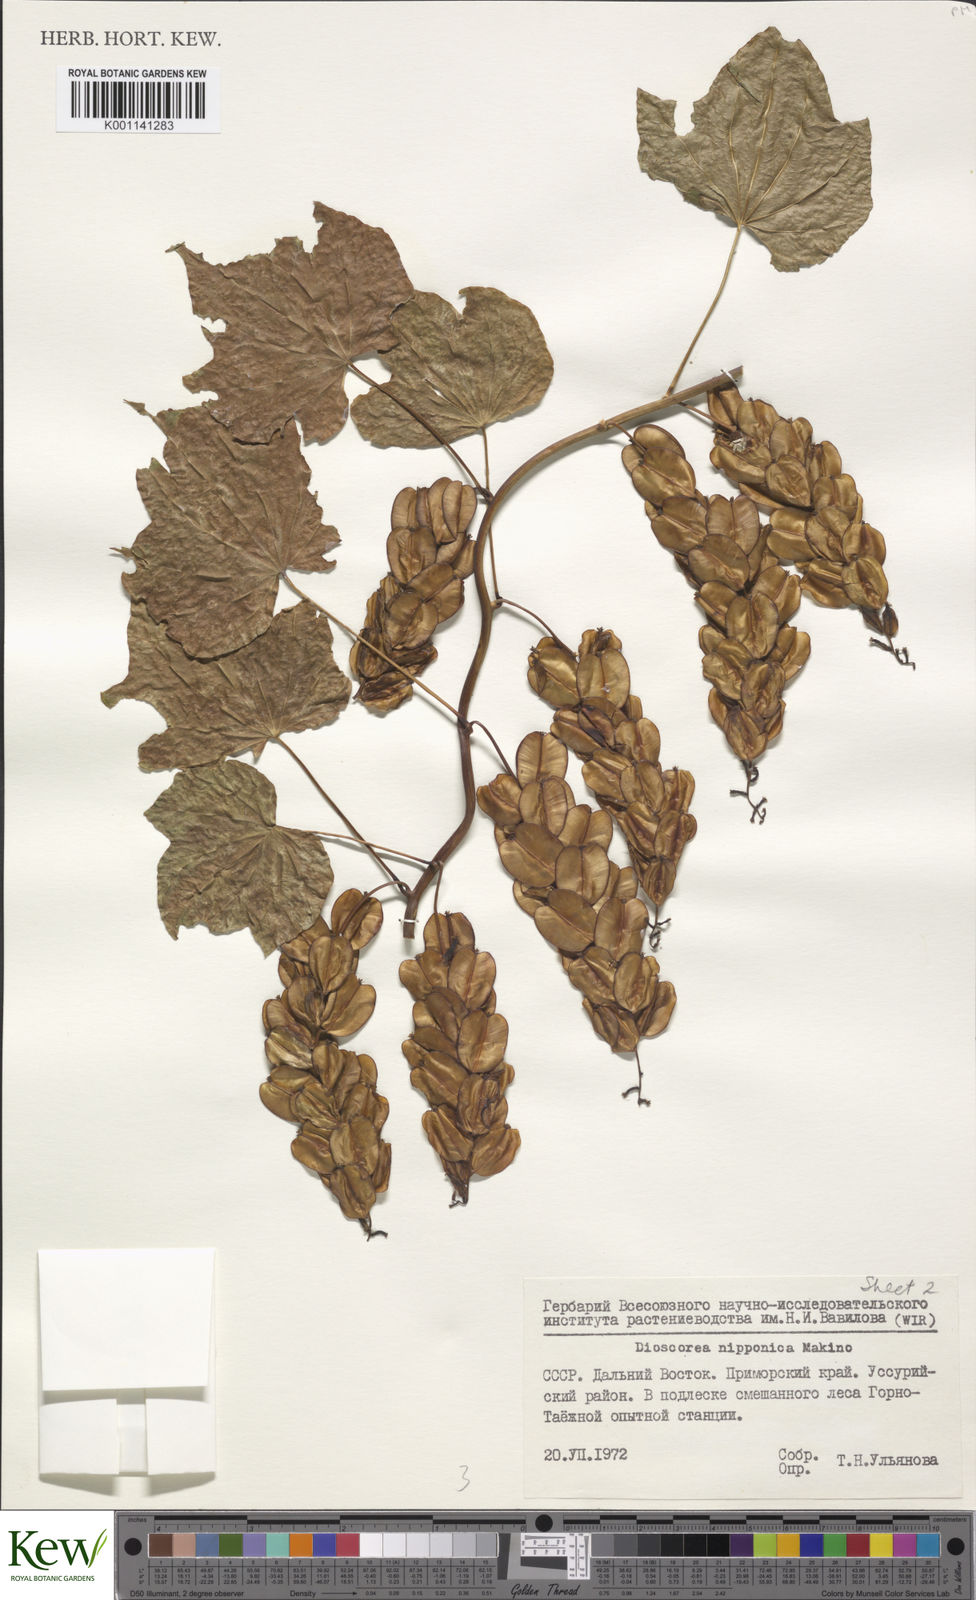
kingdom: Plantae
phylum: Tracheophyta
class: Liliopsida
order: Dioscoreales
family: Dioscoreaceae
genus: Dioscorea
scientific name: Dioscorea nipponica
